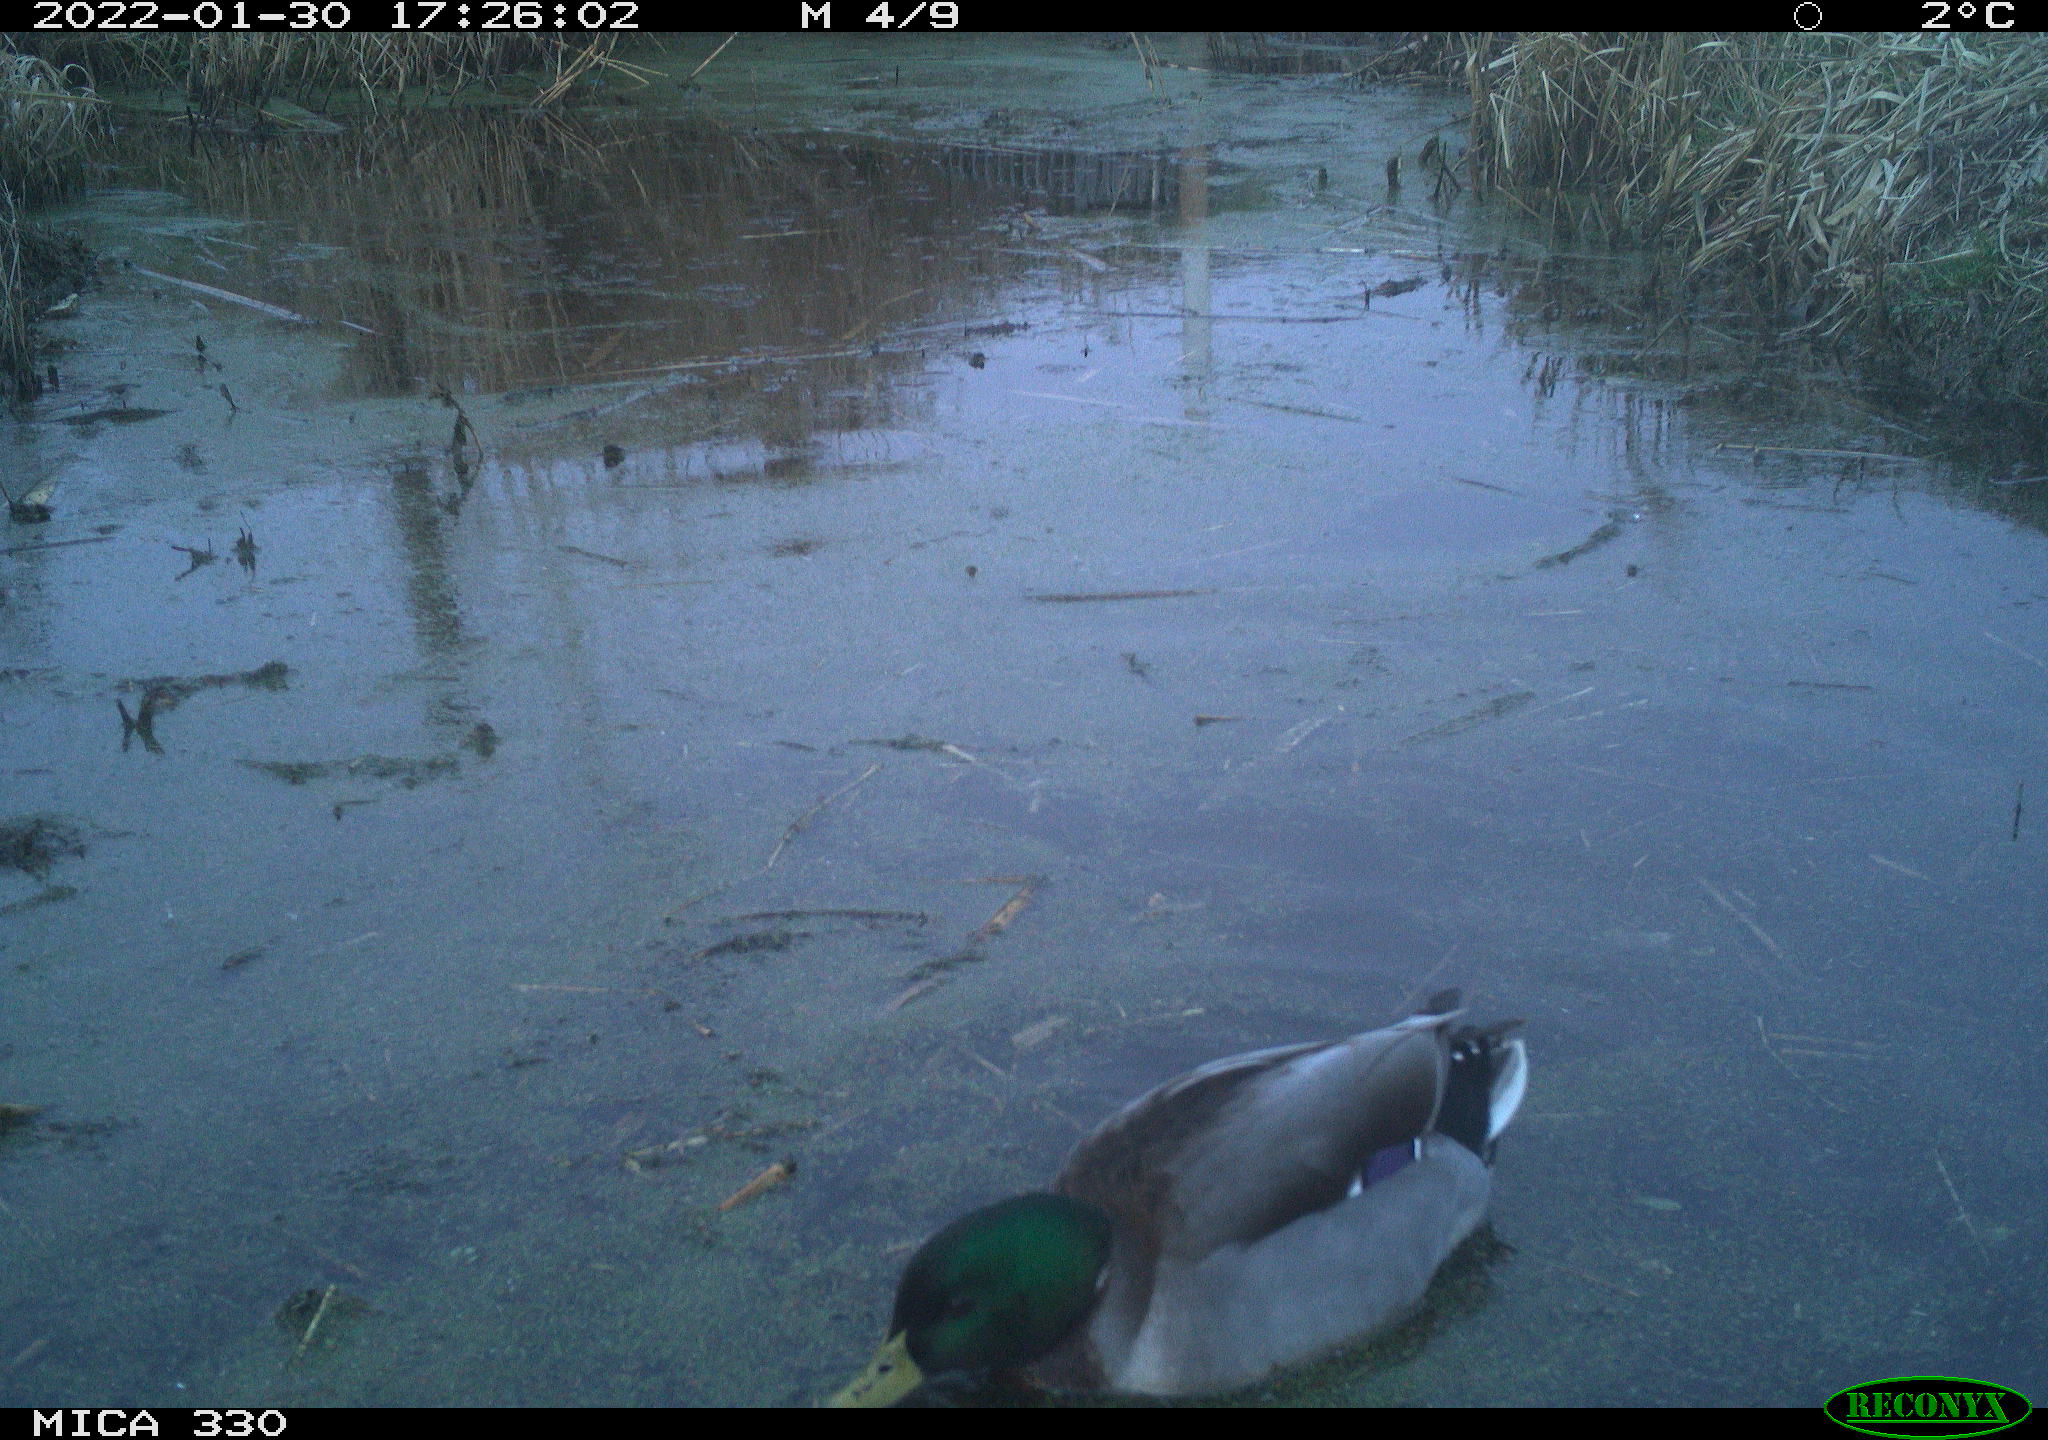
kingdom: Animalia
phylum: Chordata
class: Aves
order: Anseriformes
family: Anatidae
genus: Anas
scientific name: Anas platyrhynchos
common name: Mallard
